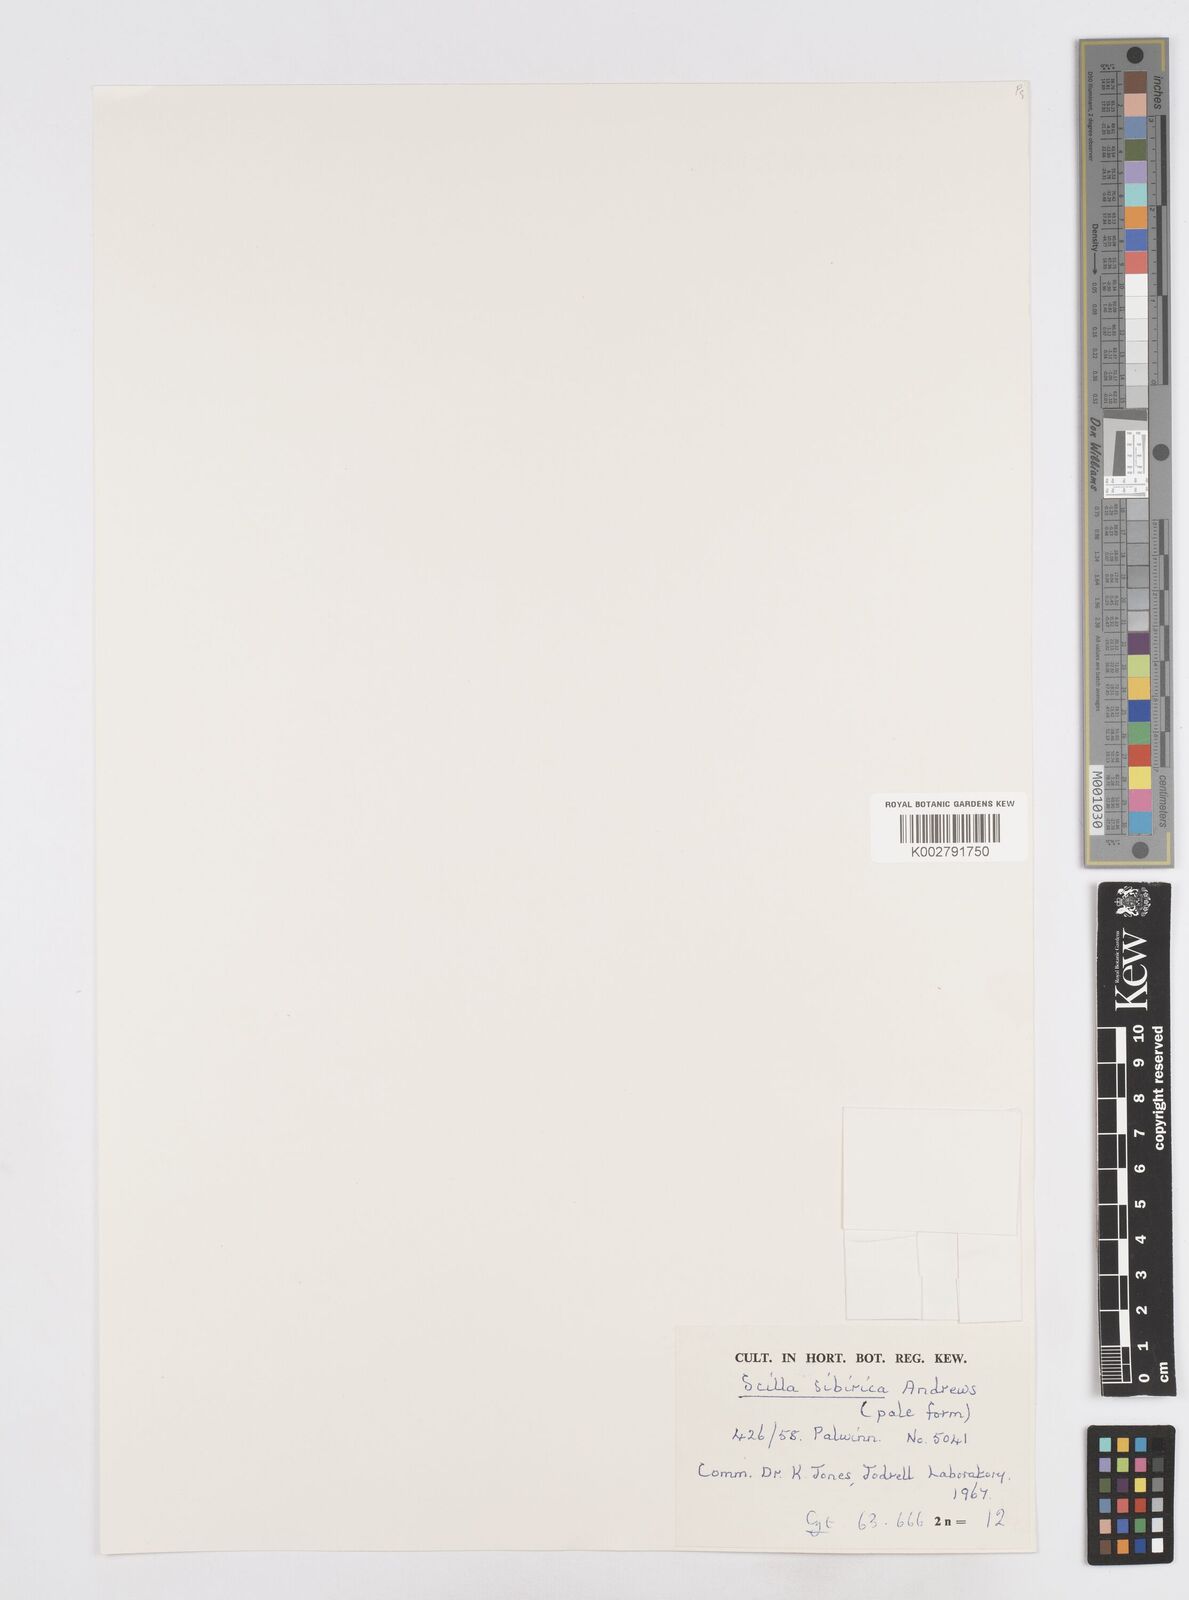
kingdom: Plantae
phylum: Tracheophyta
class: Liliopsida
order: Asparagales
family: Asparagaceae
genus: Scilla
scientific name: Scilla siberica
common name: Siberian squill
